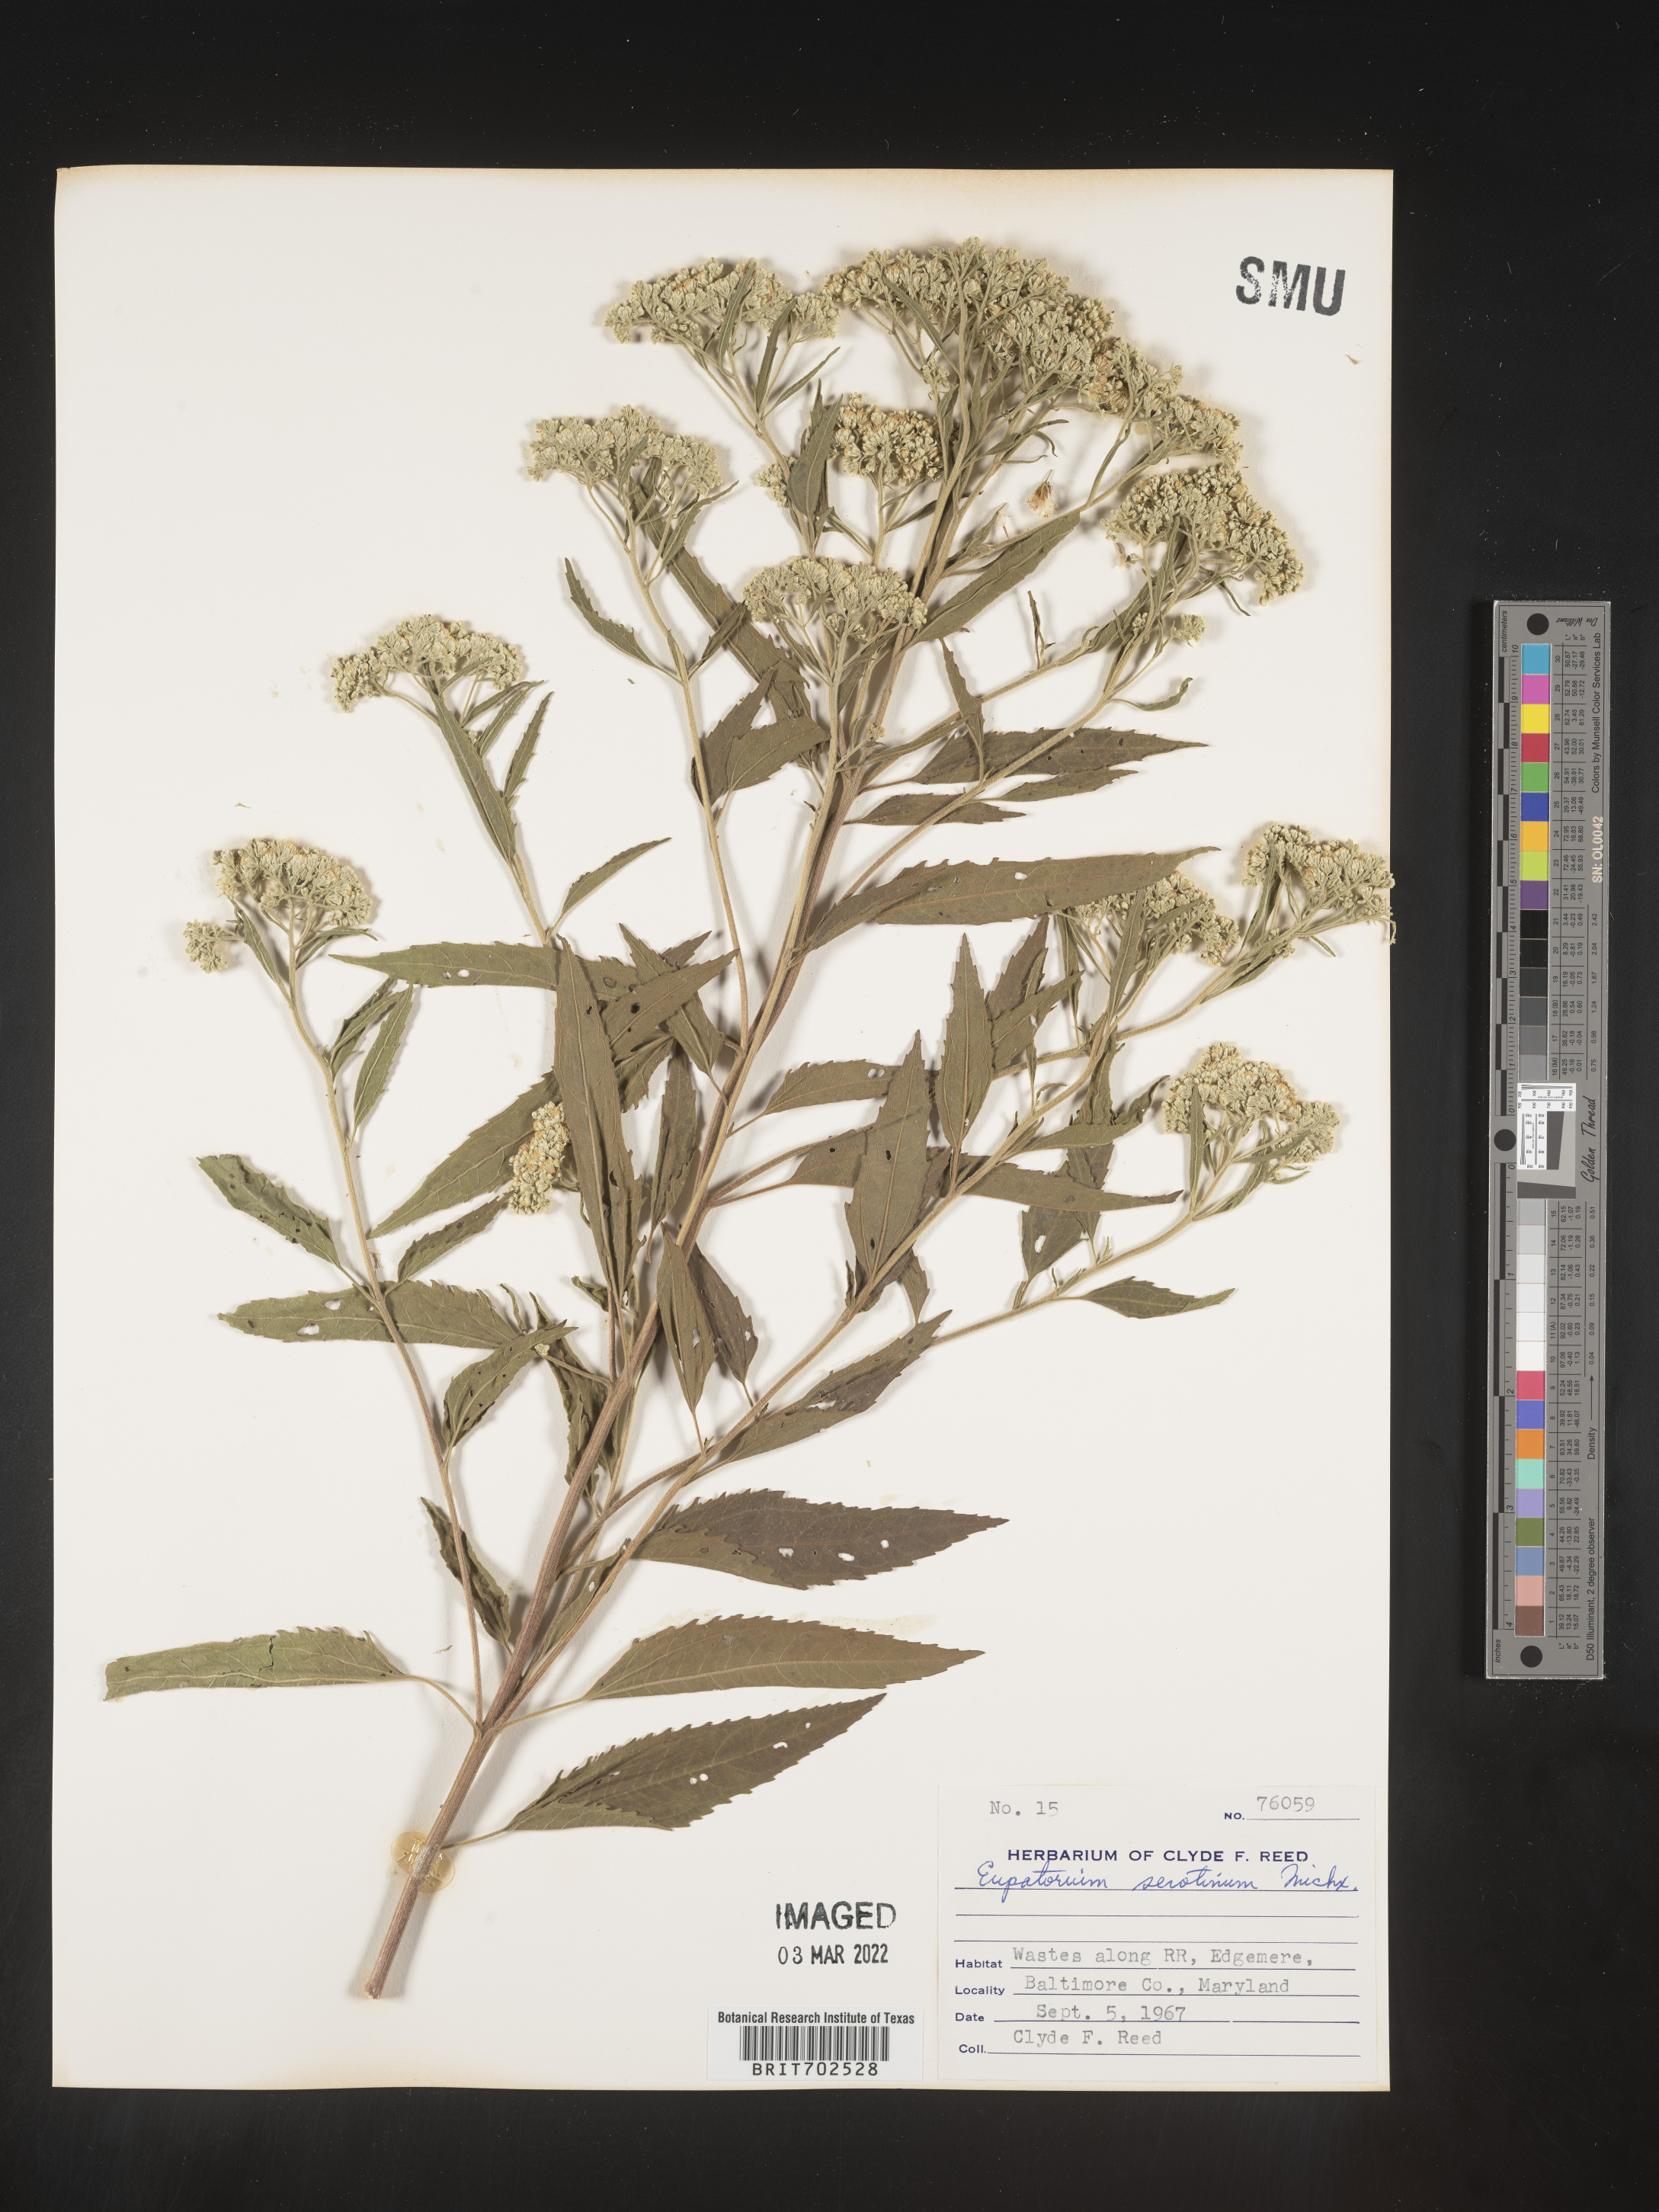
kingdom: Plantae
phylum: Tracheophyta
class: Magnoliopsida
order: Asterales
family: Asteraceae
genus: Eupatorium
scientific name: Eupatorium serotinum
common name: Late boneset
